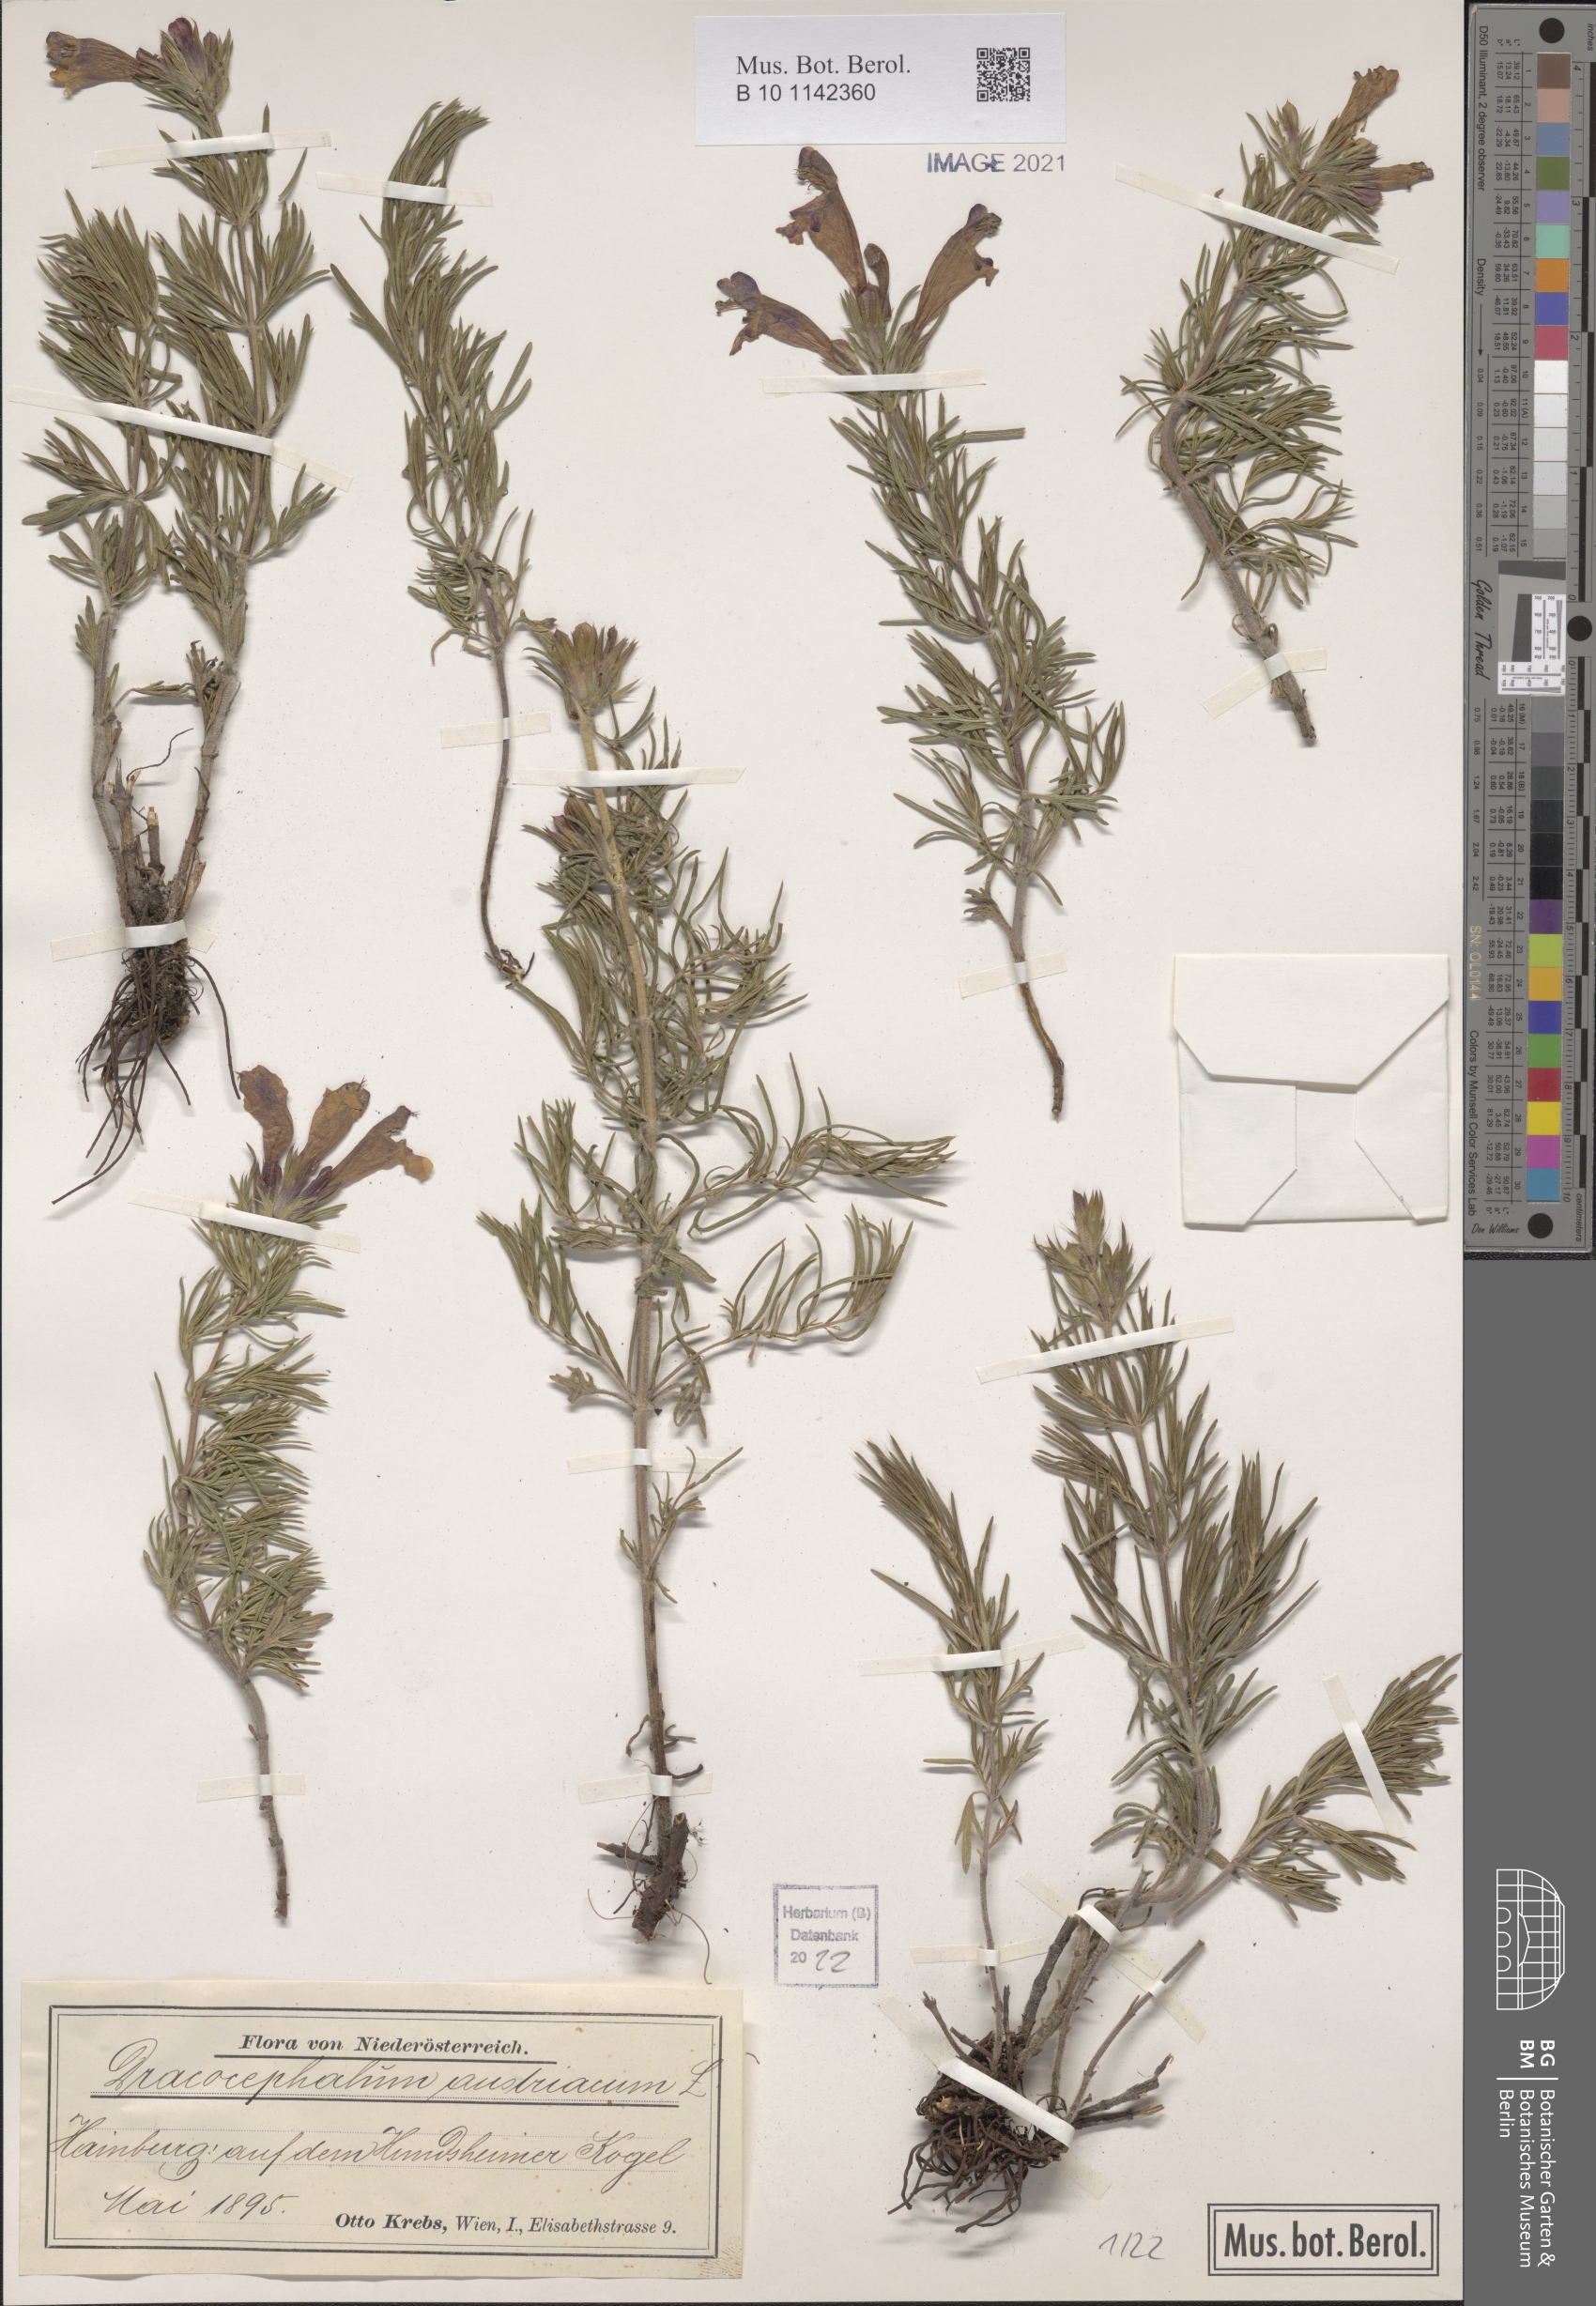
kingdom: Plantae
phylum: Tracheophyta
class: Magnoliopsida
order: Lamiales
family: Lamiaceae
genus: Dracocephalum
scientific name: Dracocephalum austriacum
